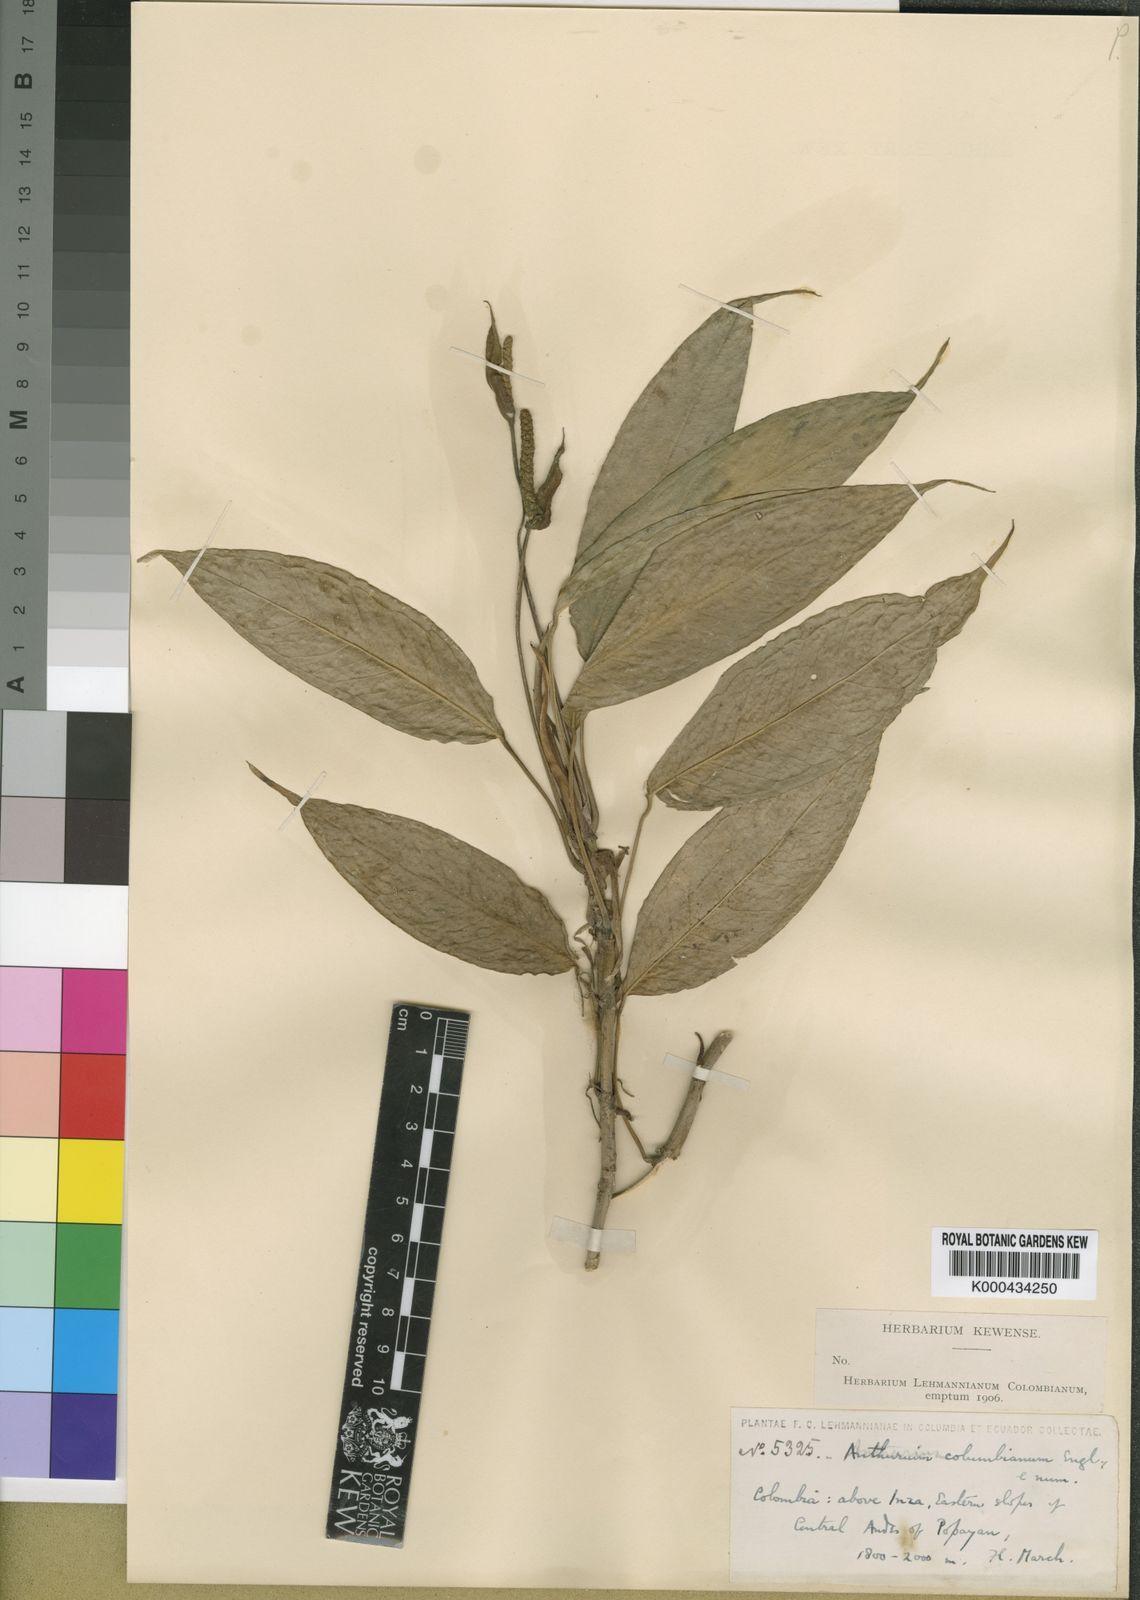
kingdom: Plantae
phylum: Tracheophyta
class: Liliopsida
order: Alismatales
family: Araceae
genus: Anthurium
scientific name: Anthurium microspadix
